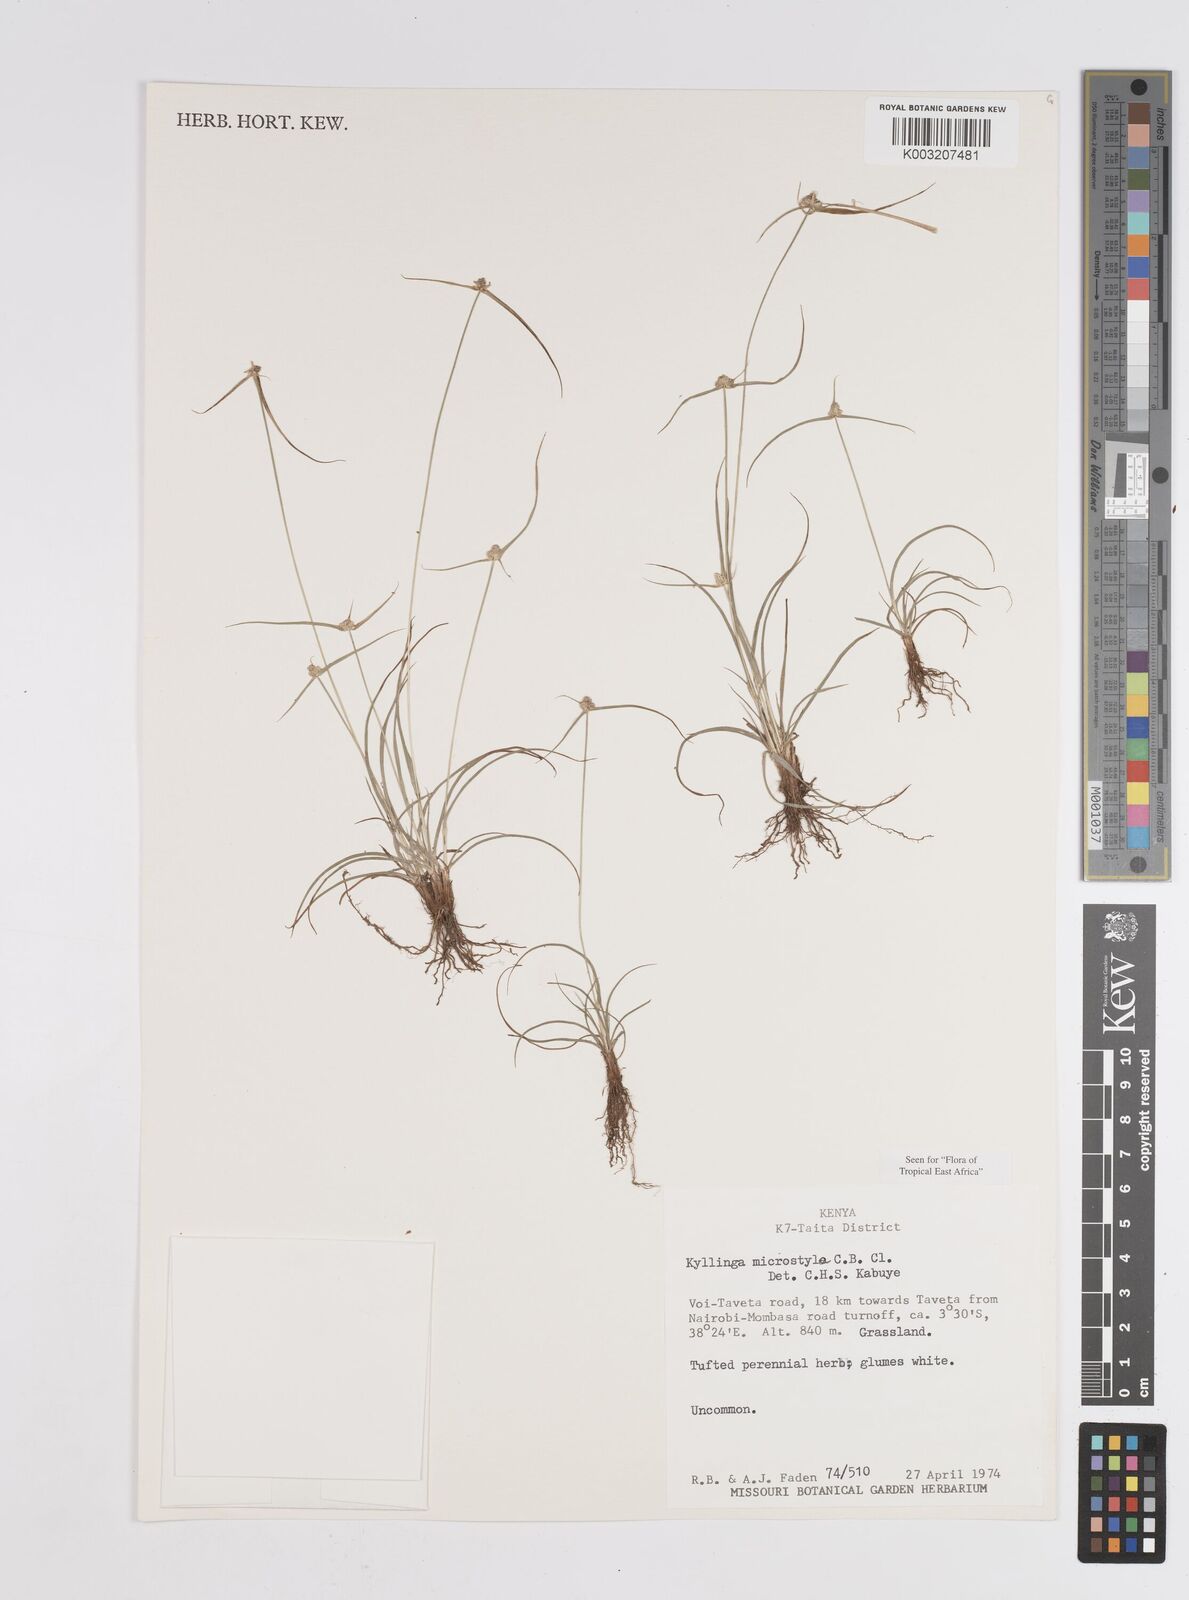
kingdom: Plantae
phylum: Tracheophyta
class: Liliopsida
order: Poales
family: Cyperaceae
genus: Cyperus
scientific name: Cyperus microstylus
